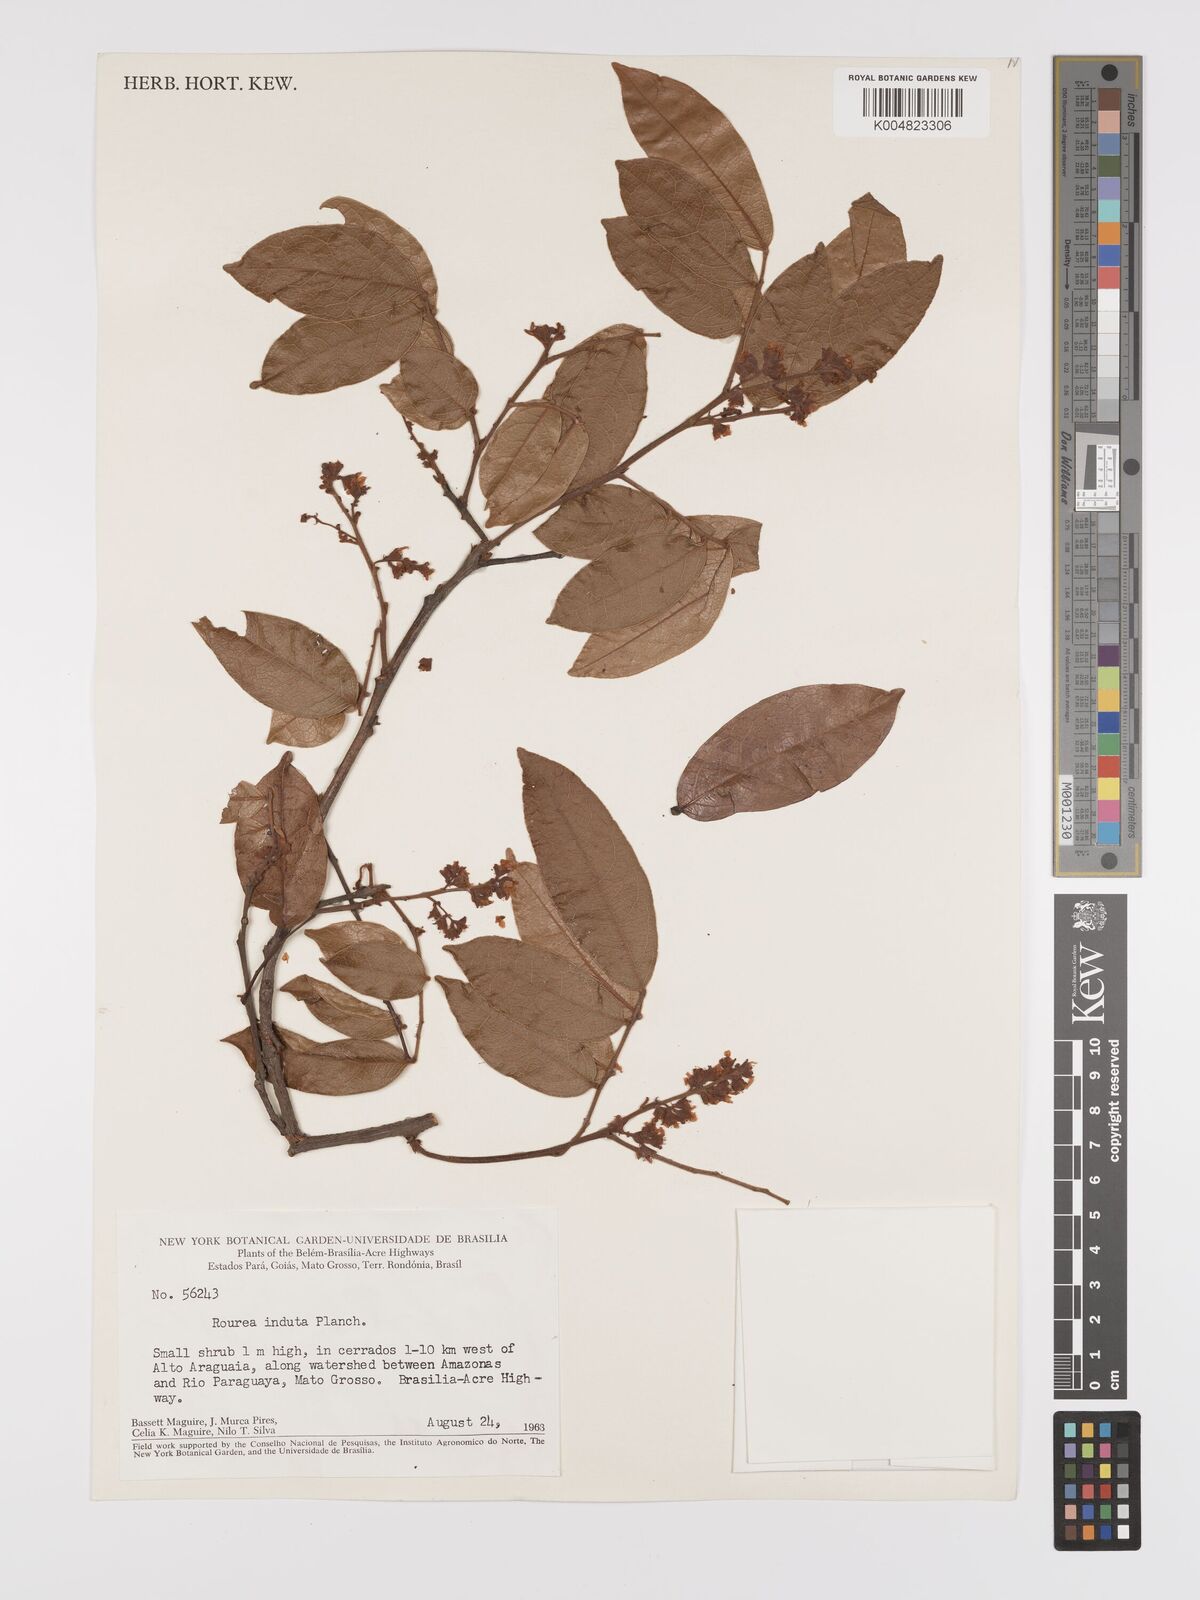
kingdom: Plantae
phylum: Tracheophyta
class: Magnoliopsida
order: Oxalidales
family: Connaraceae
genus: Rourea
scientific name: Rourea induta
